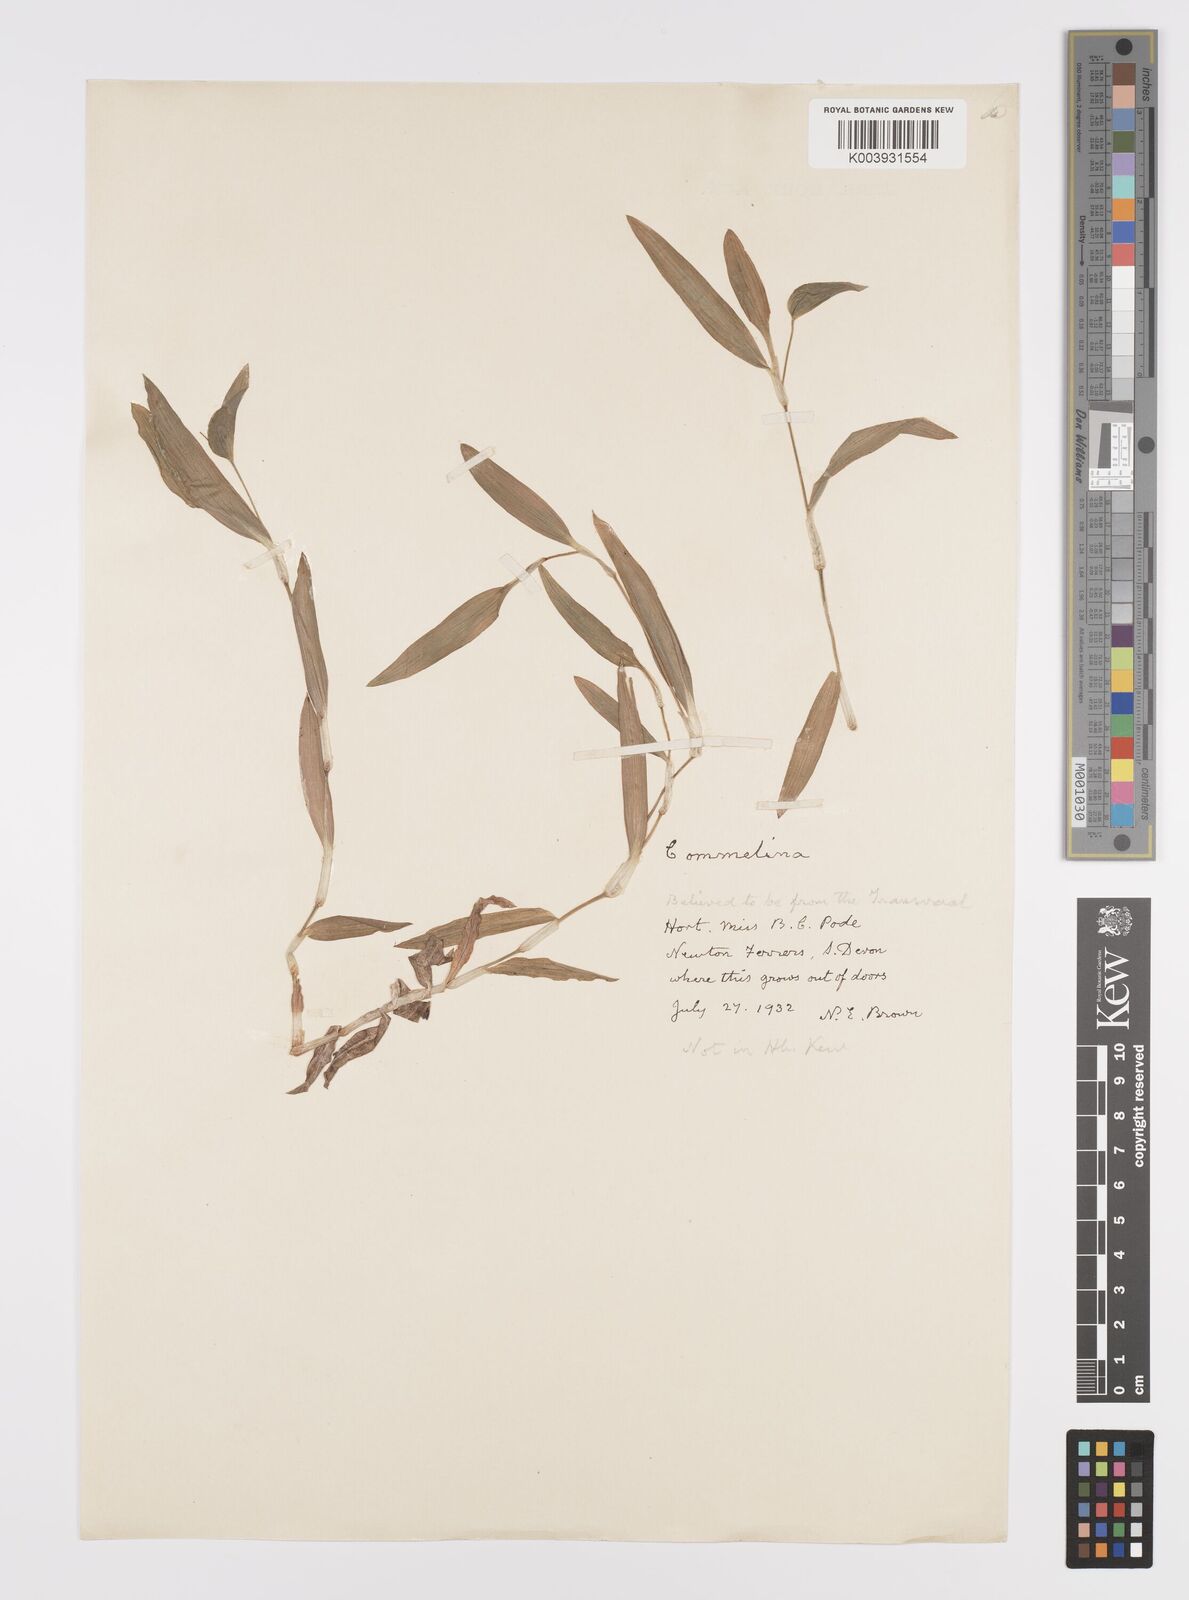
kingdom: Plantae
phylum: Tracheophyta
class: Liliopsida
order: Commelinales
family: Commelinaceae
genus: Commelina
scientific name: Commelina scandens
